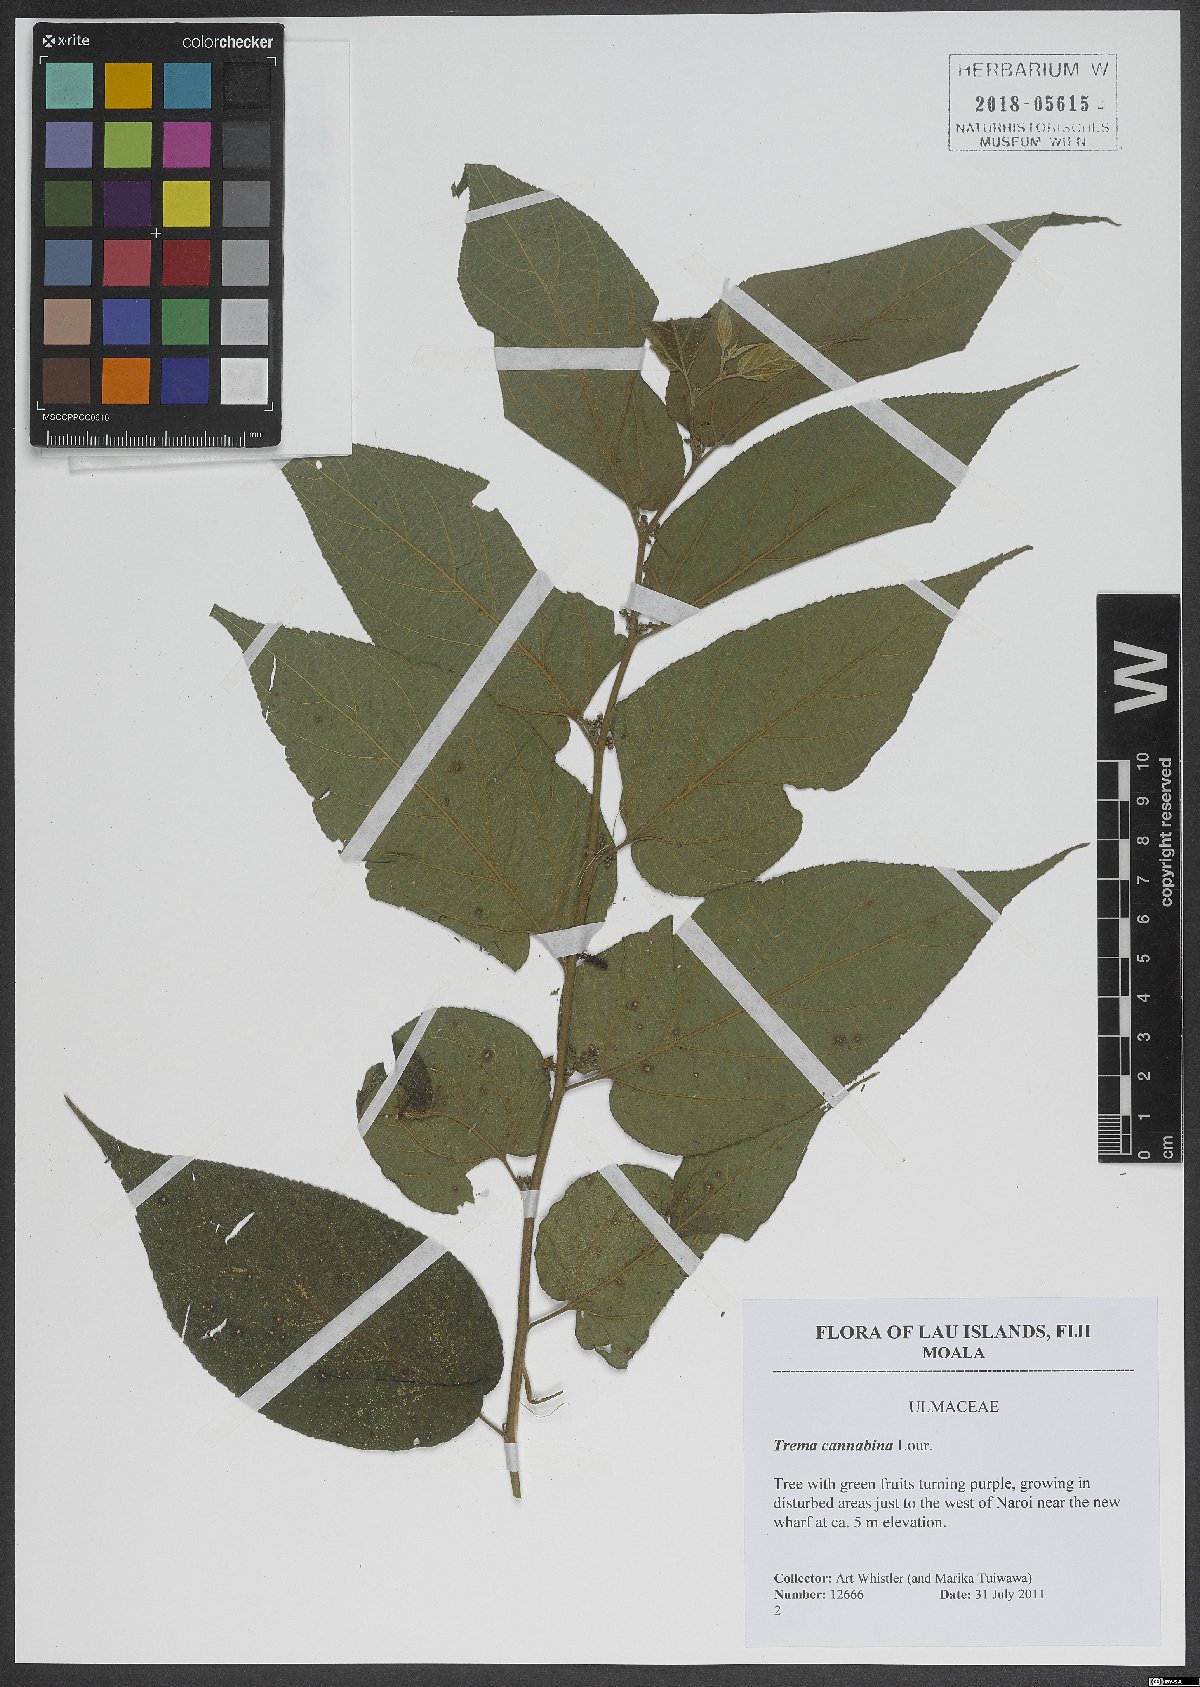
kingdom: Plantae
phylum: Tracheophyta
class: Magnoliopsida
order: Rosales
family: Cannabaceae
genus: Trema
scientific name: Trema cannabina
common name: Poison-peach
